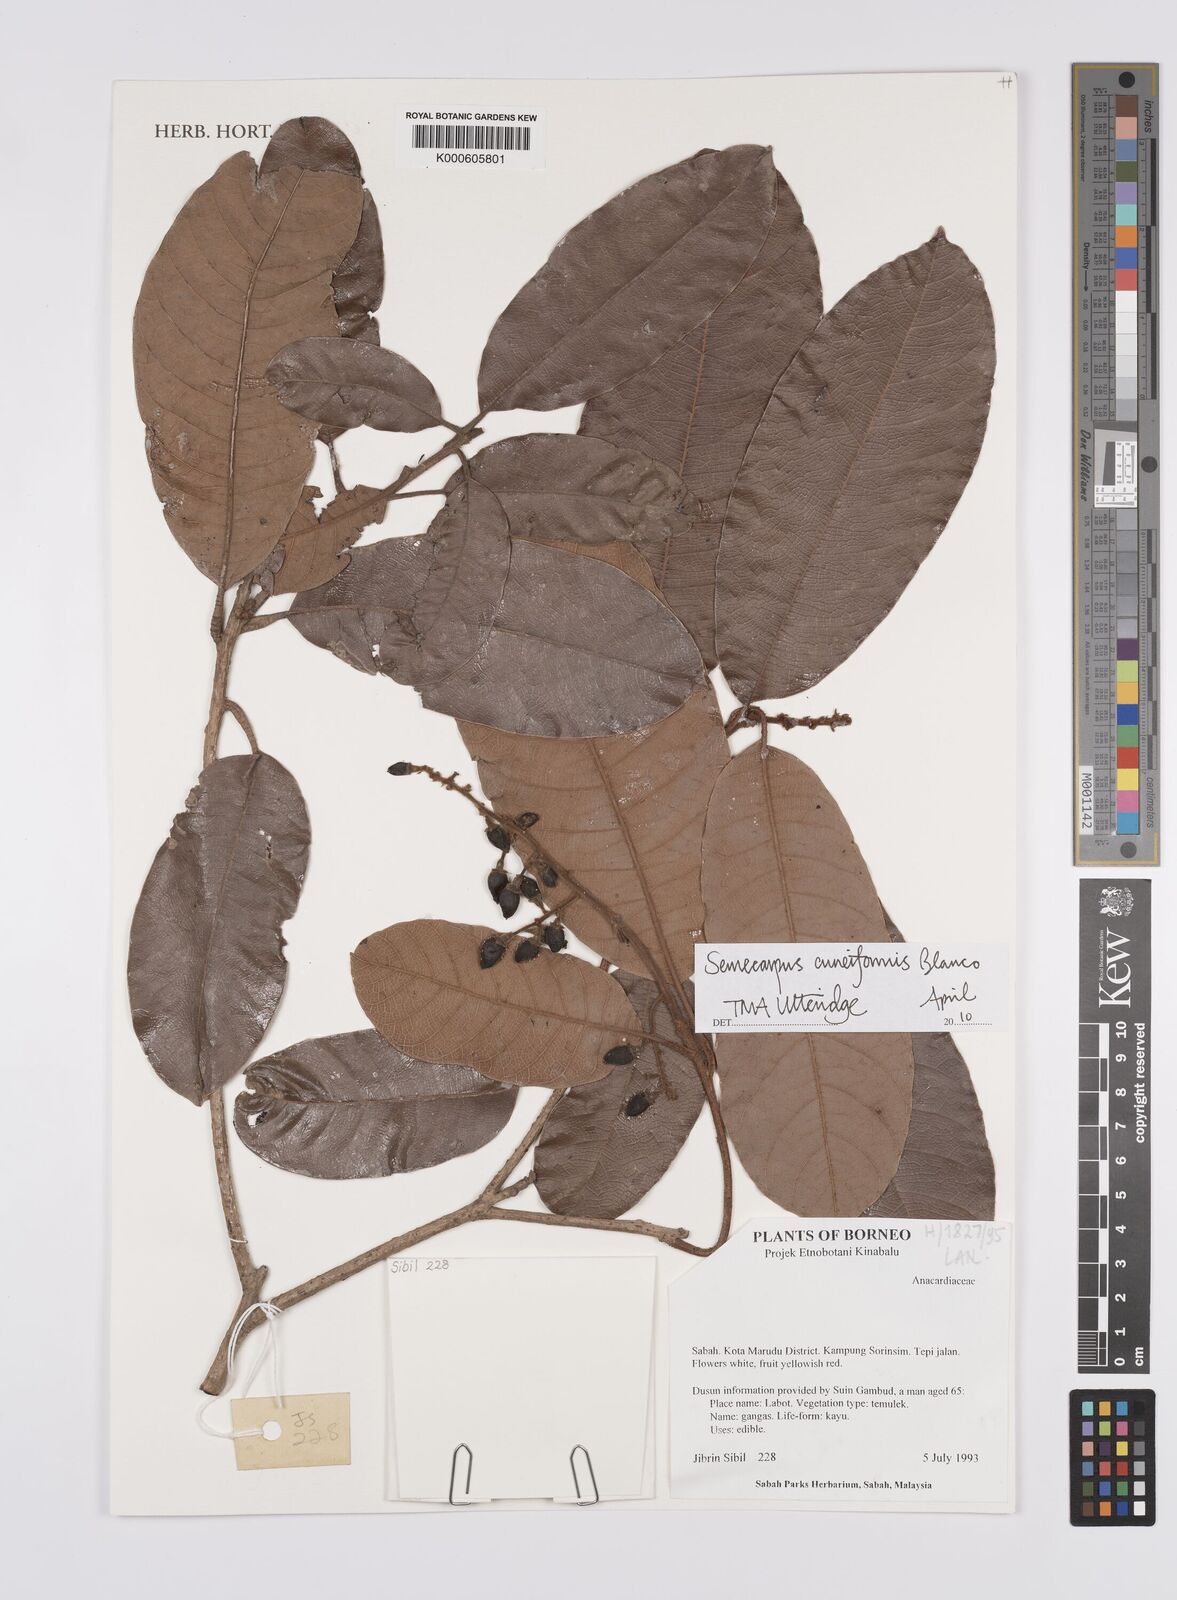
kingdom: Plantae
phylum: Tracheophyta
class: Magnoliopsida
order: Sapindales
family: Anacardiaceae
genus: Semecarpus
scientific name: Semecarpus cuneiformis
